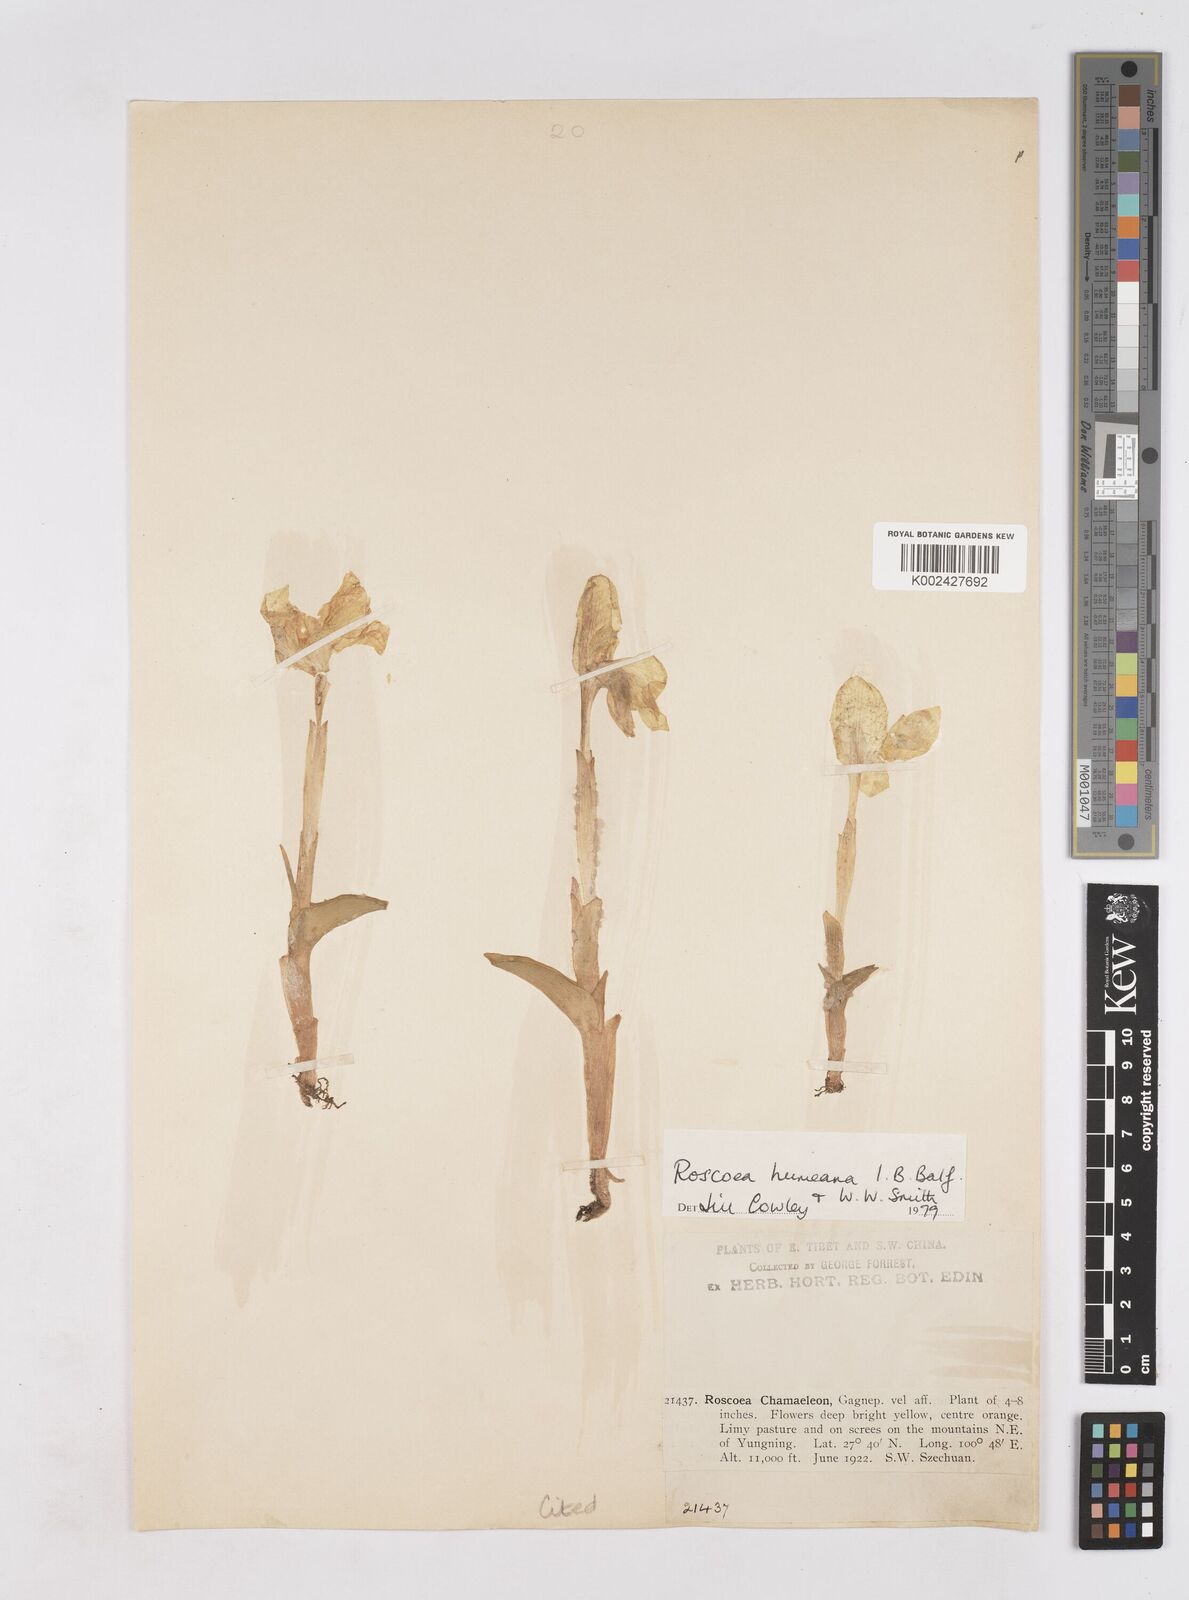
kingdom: Plantae
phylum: Tracheophyta
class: Liliopsida
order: Zingiberales
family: Zingiberaceae
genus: Roscoea
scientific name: Roscoea humeana
